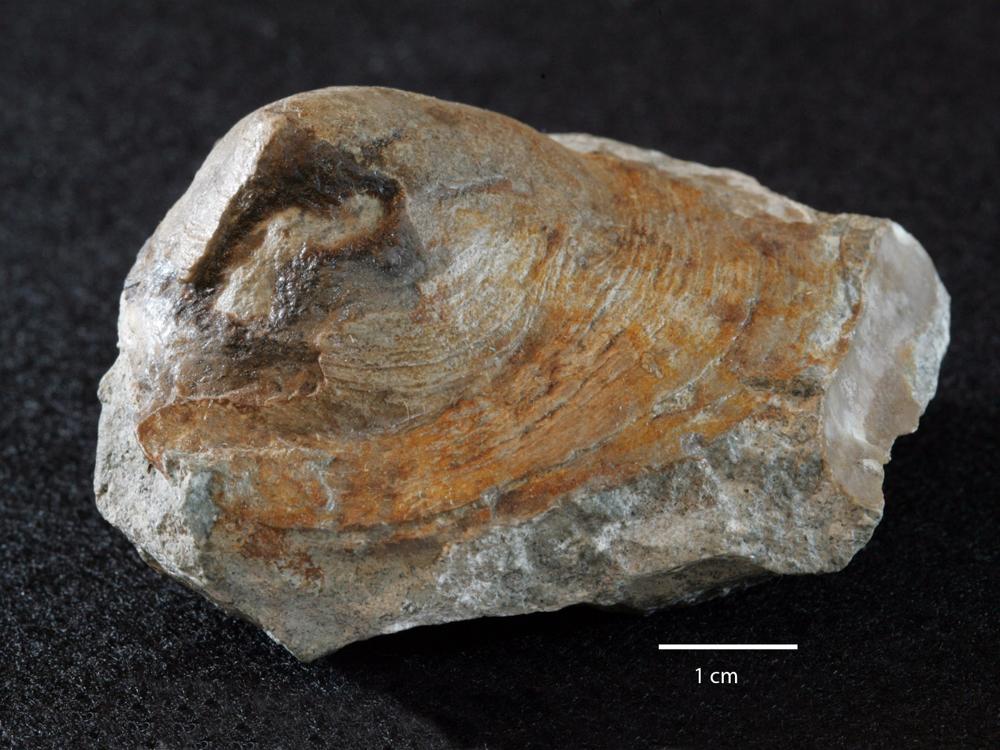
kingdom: Animalia
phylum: Brachiopoda
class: Lingulata
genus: Pseudometoptoma
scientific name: Pseudometoptoma
